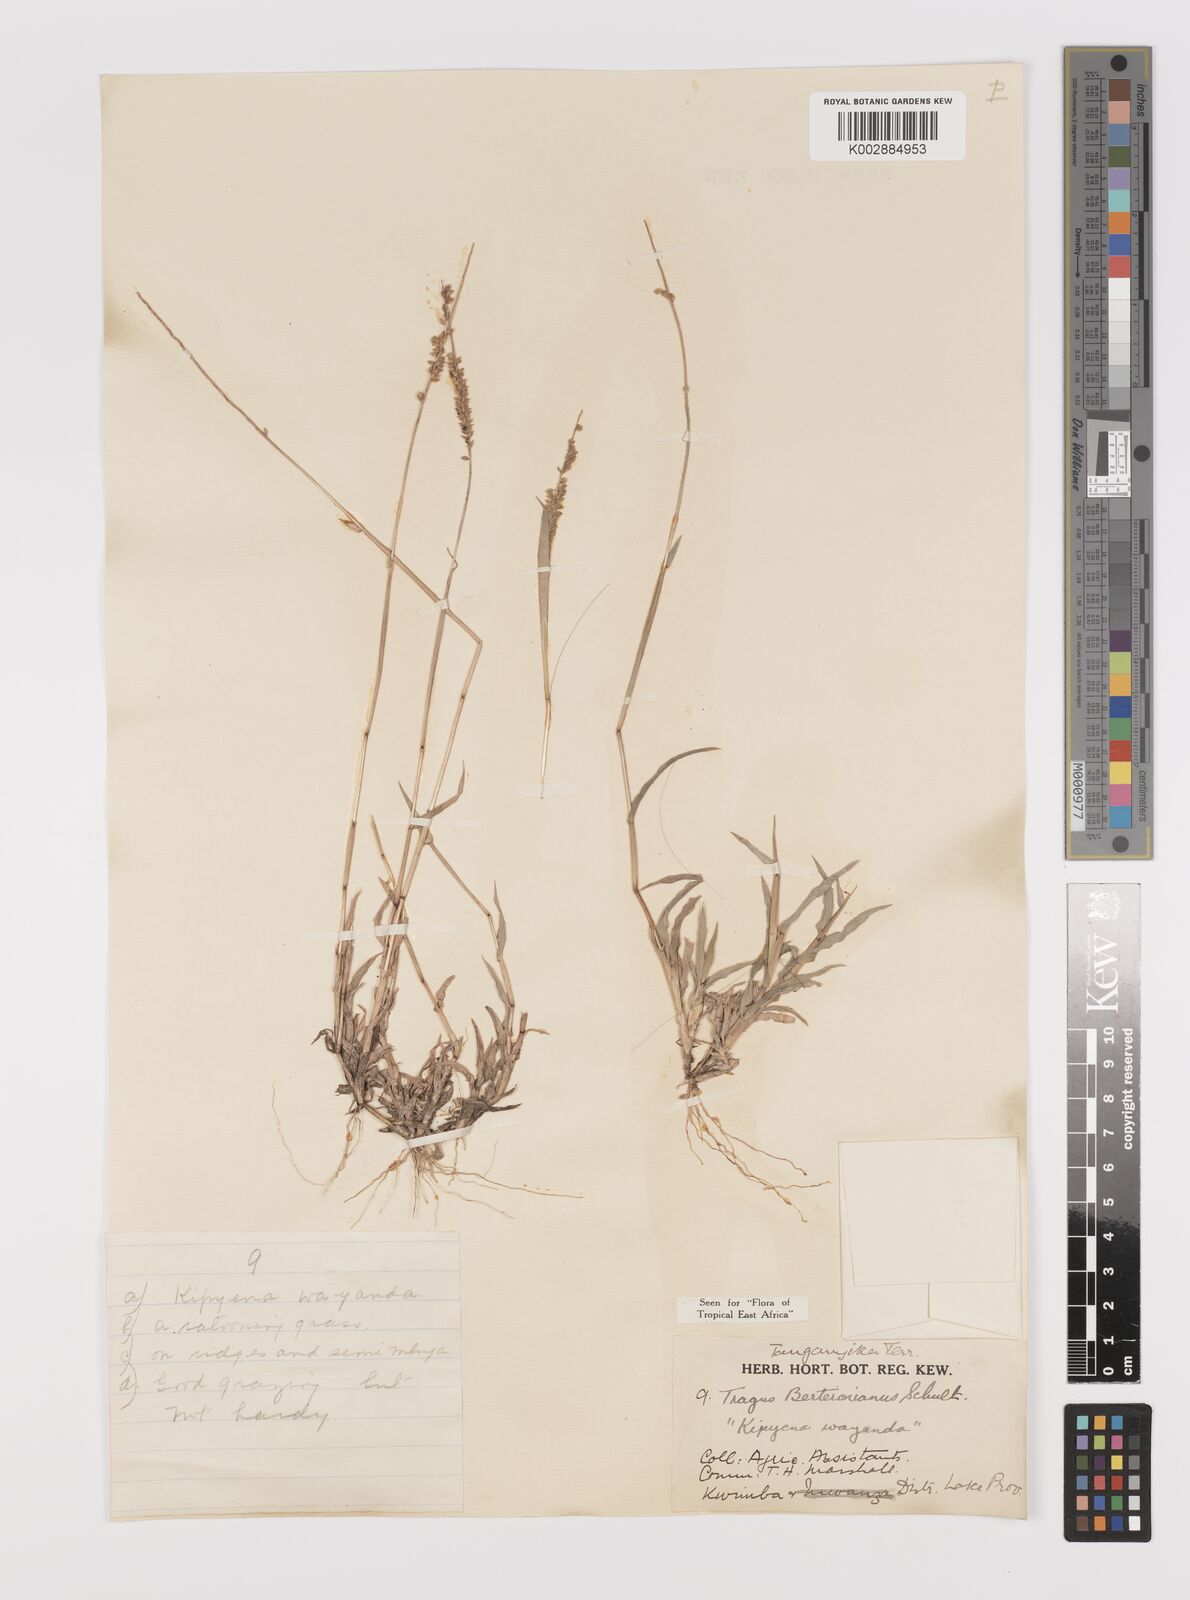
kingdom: Plantae
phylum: Tracheophyta
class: Liliopsida
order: Poales
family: Poaceae
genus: Tragus
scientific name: Tragus berteronianus
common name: African bur-grass
